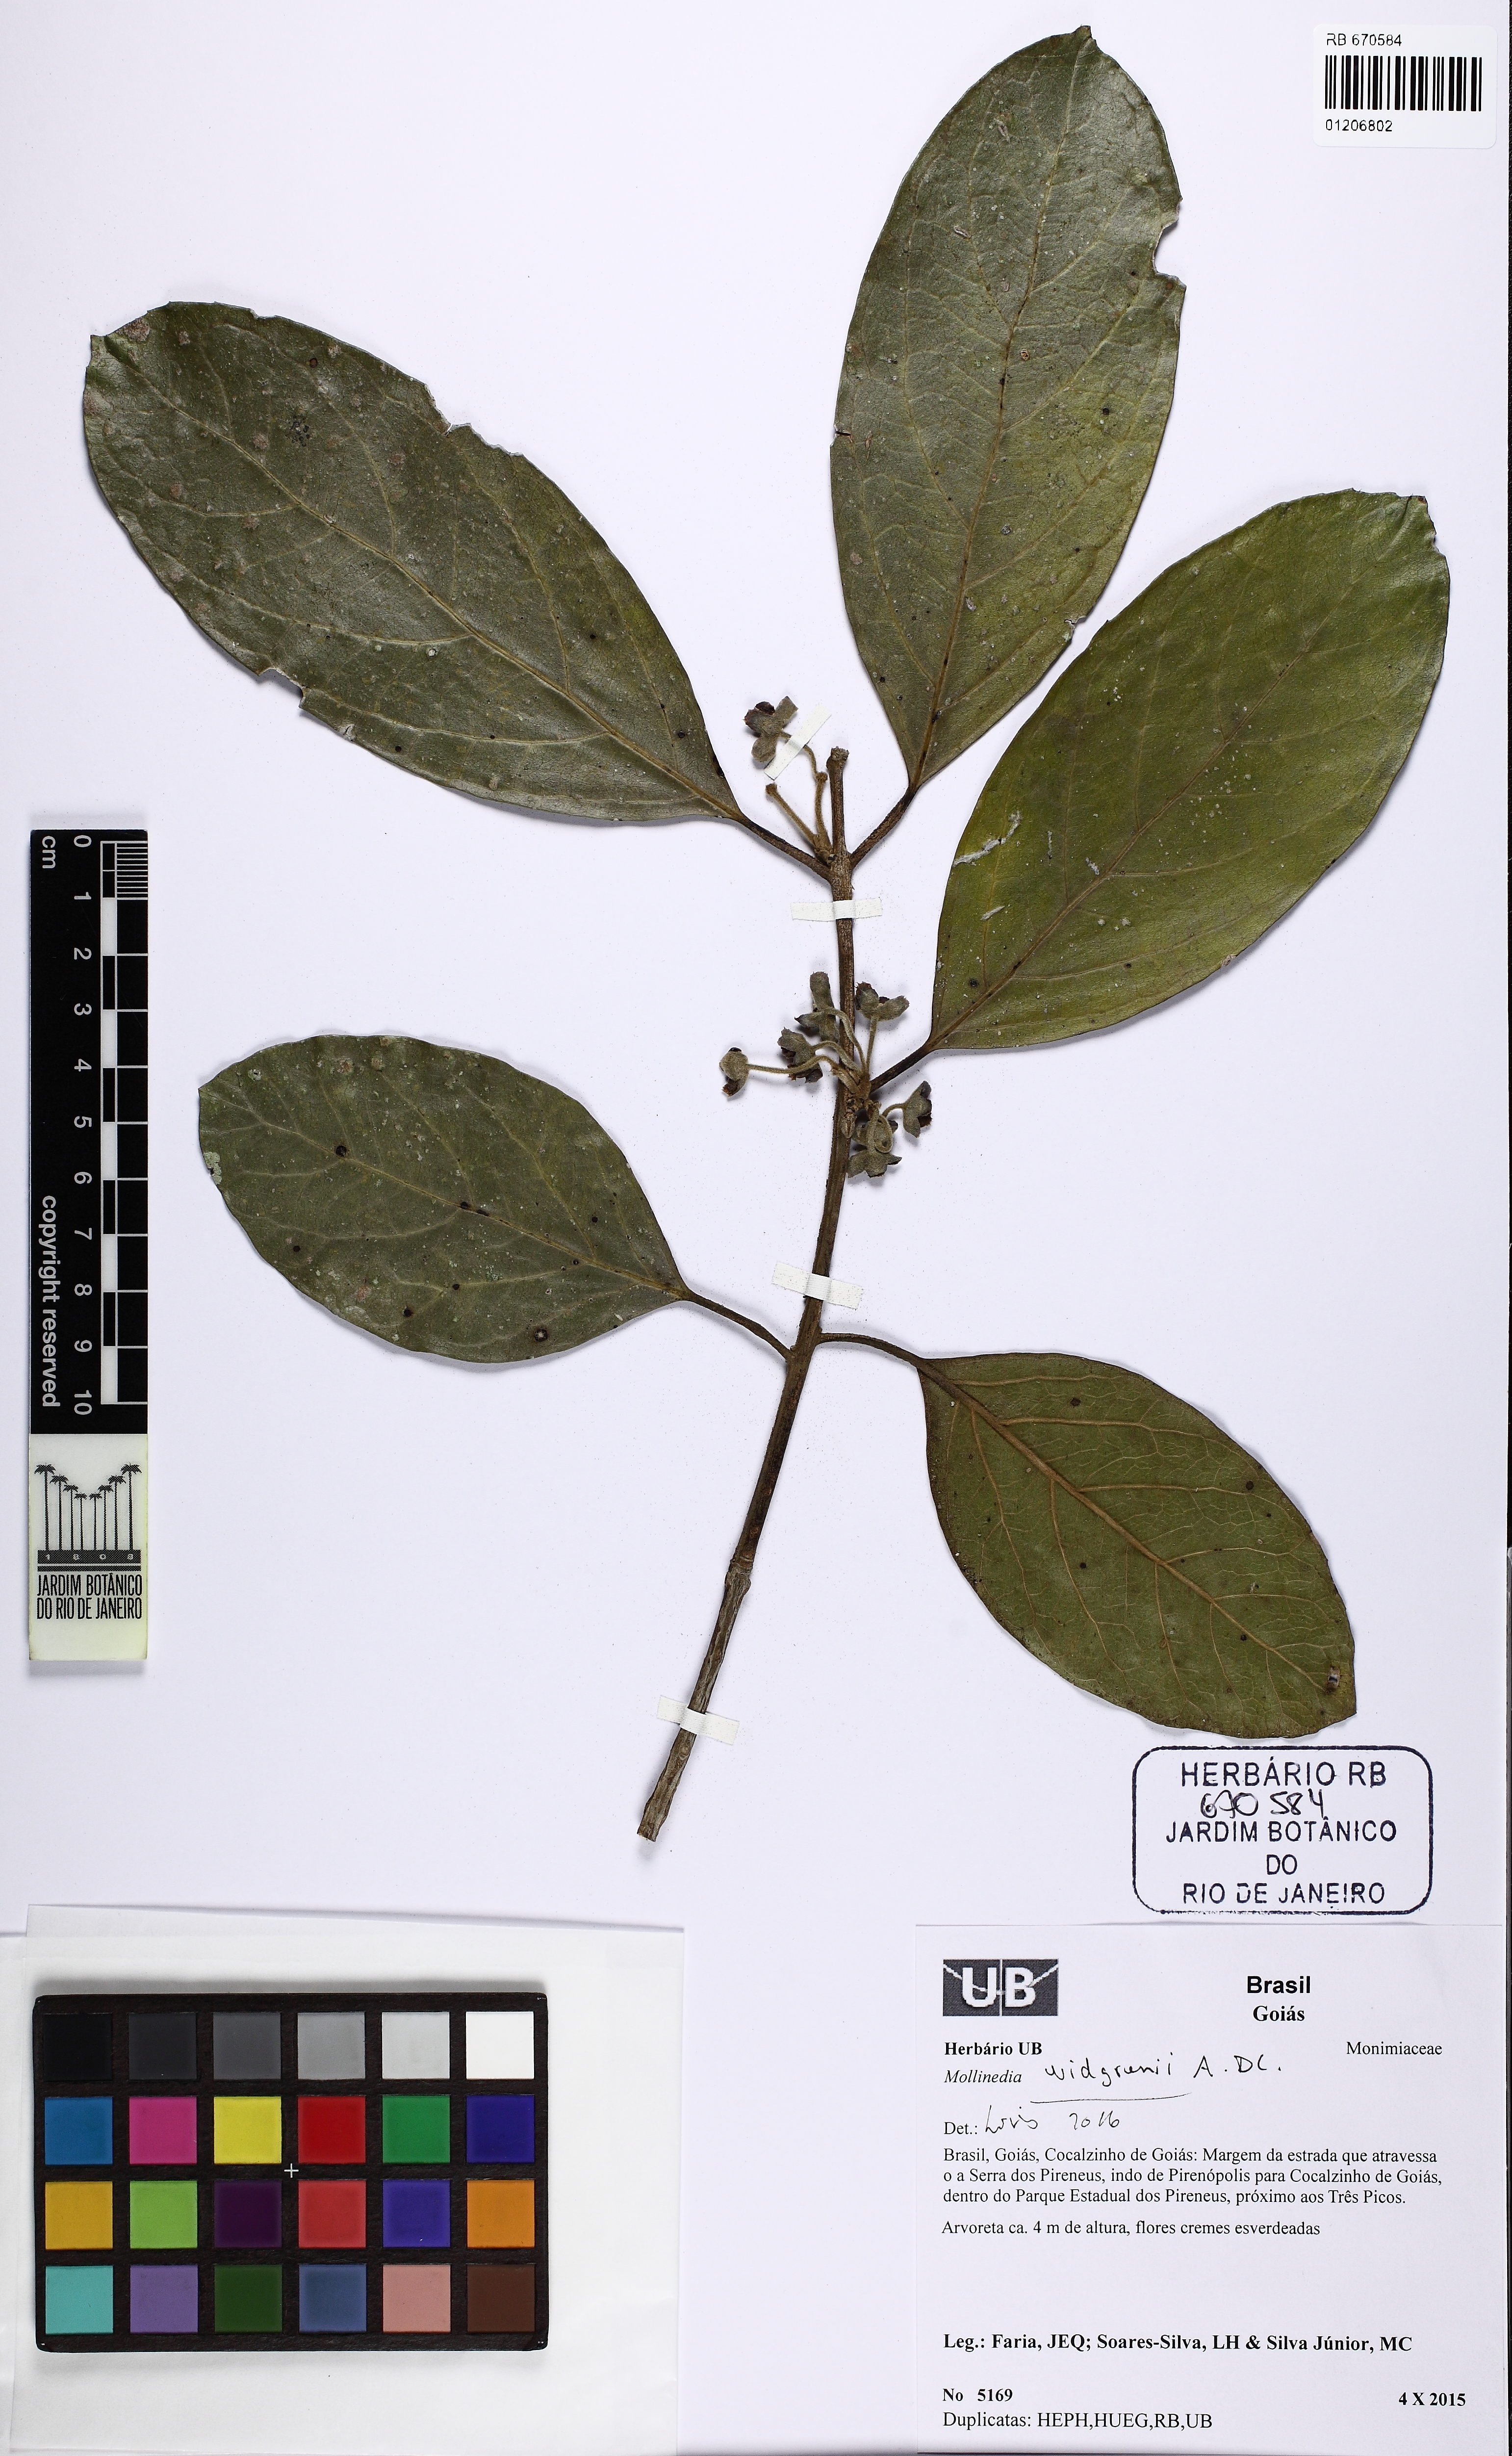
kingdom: Plantae
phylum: Tracheophyta
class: Magnoliopsida
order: Laurales
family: Monimiaceae
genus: Mollinedia
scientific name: Mollinedia widgrenii
